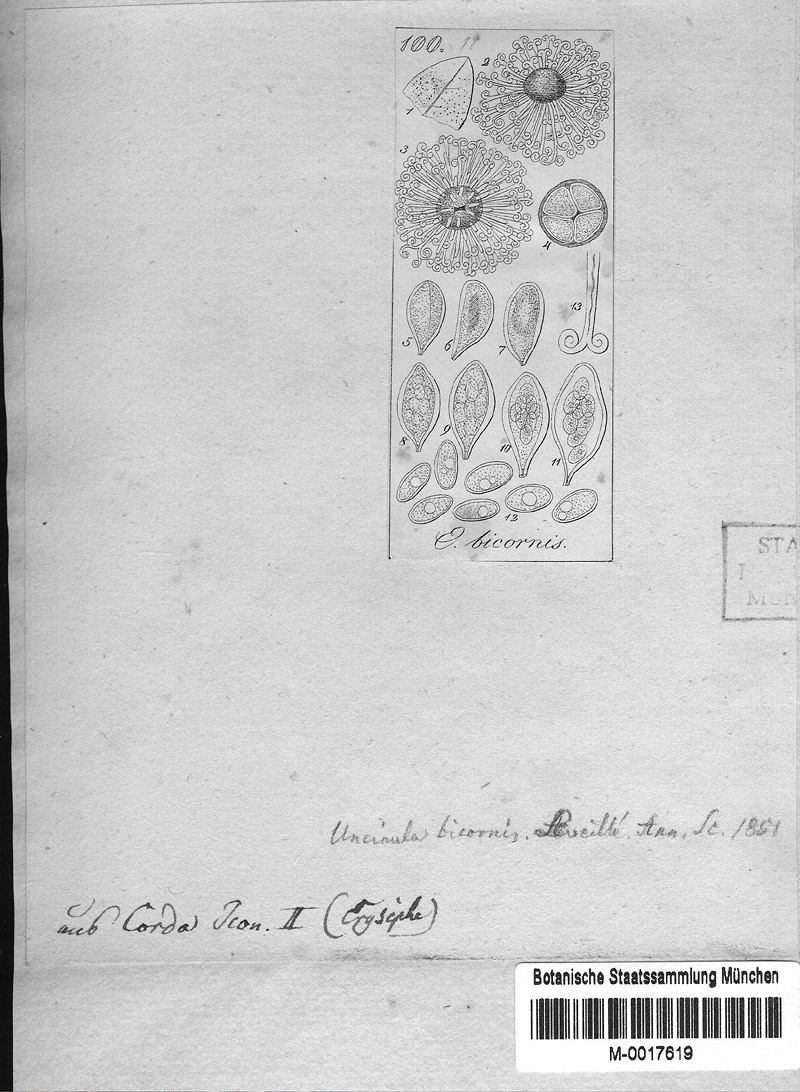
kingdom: Fungi
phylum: Ascomycota
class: Leotiomycetes
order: Helotiales
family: Erysiphaceae
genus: Sawadaea
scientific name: Sawadaea bicornis
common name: Maple mildew
